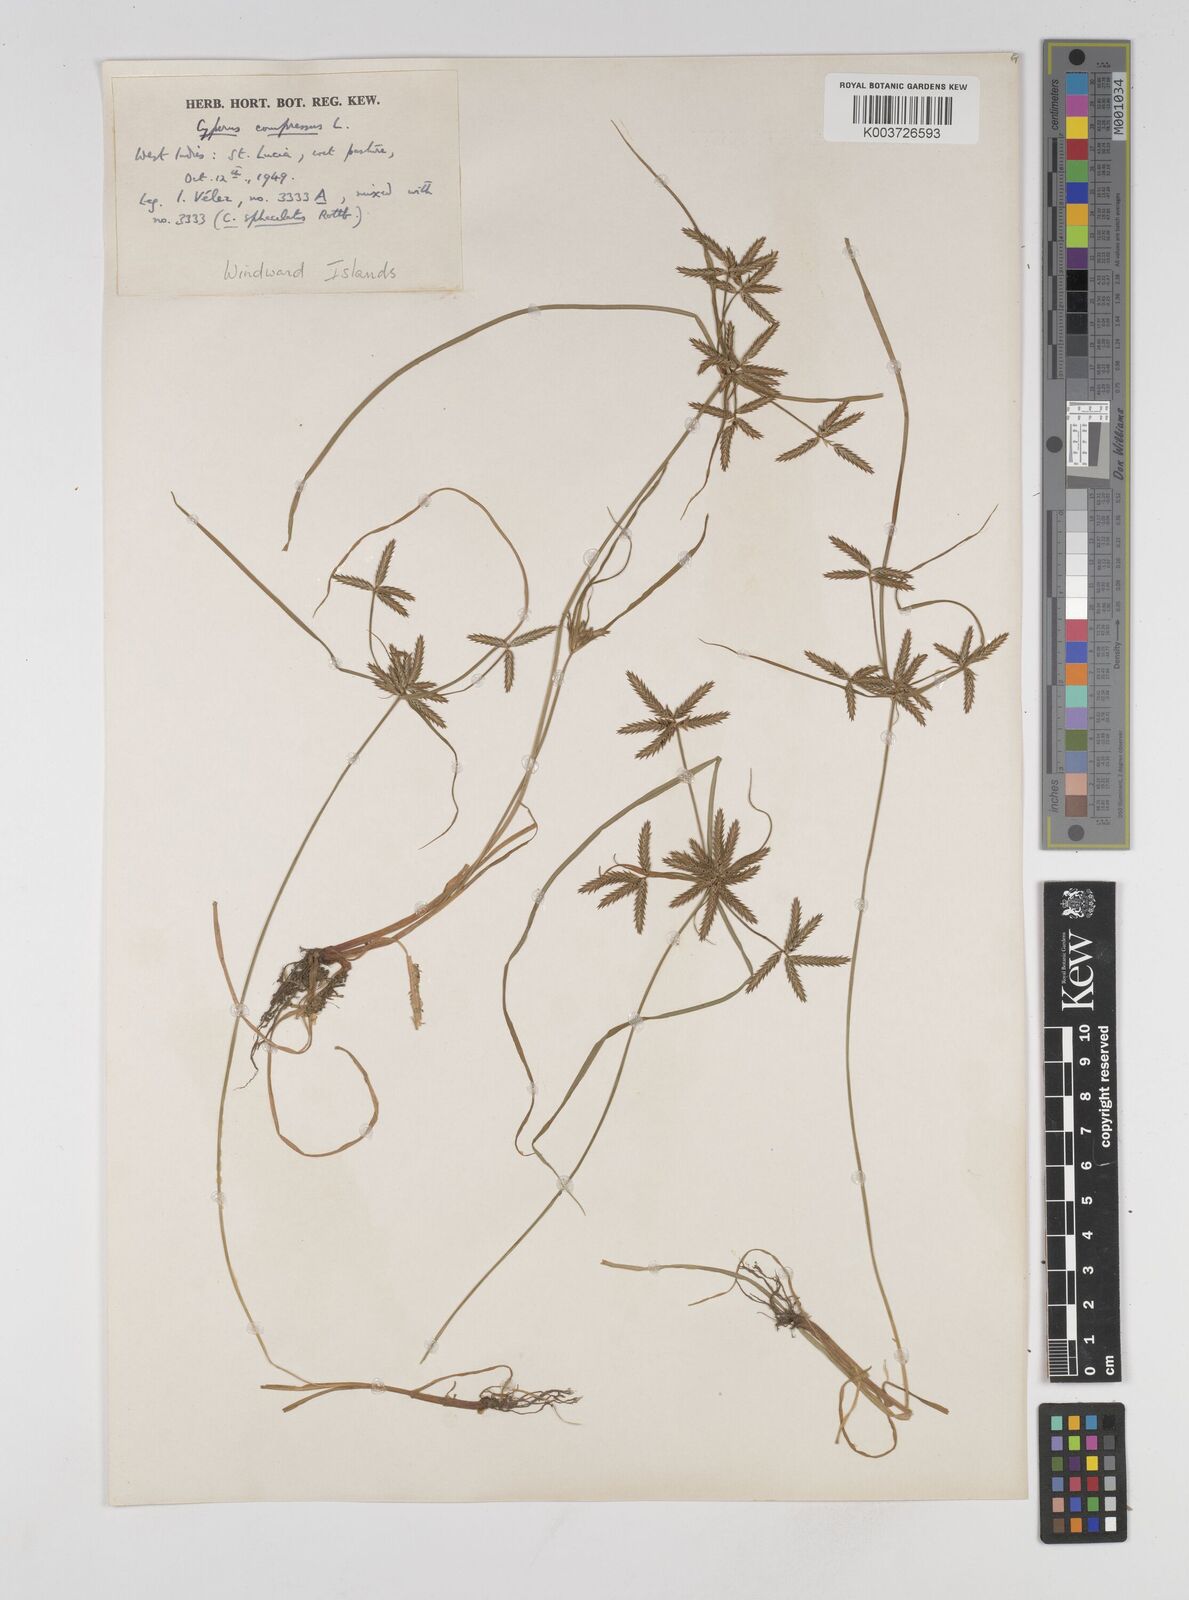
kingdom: Plantae
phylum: Tracheophyta
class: Liliopsida
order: Poales
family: Cyperaceae
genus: Cyperus
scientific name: Cyperus compressus
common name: Poorland flatsedge
